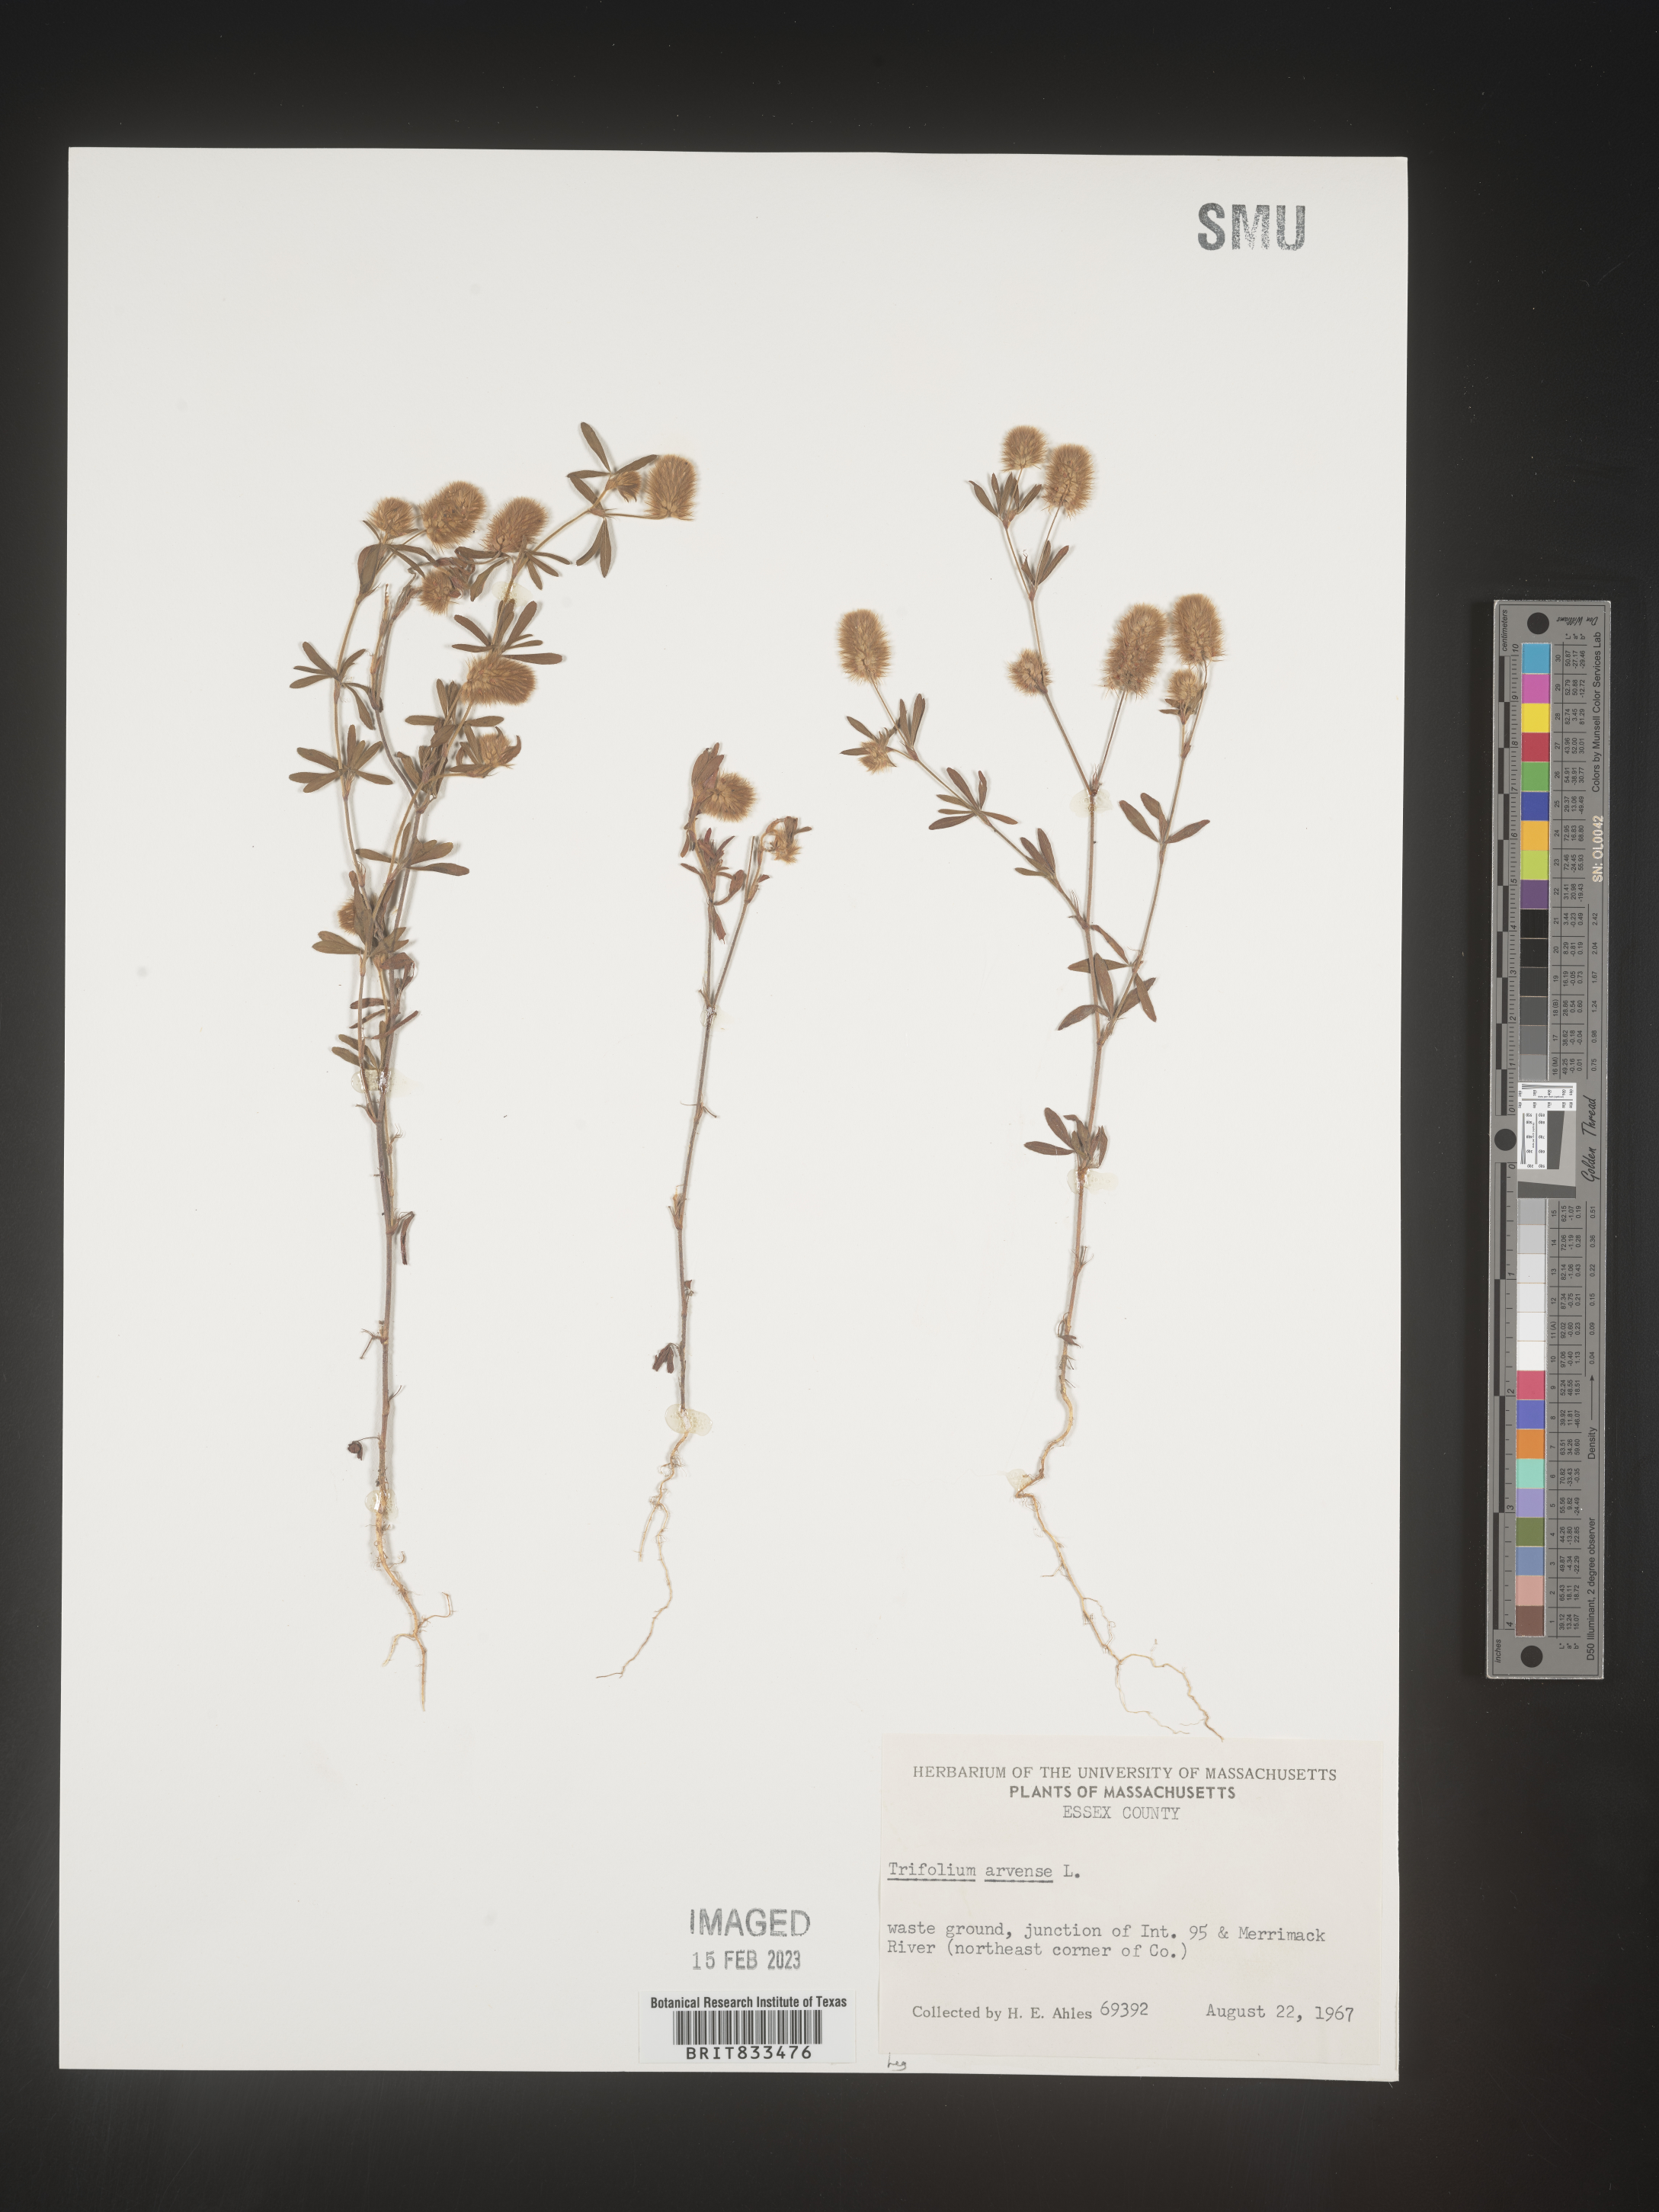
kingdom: Plantae
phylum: Tracheophyta
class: Magnoliopsida
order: Fabales
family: Fabaceae
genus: Trifolium
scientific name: Trifolium arvense
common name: Hare's-foot clover
